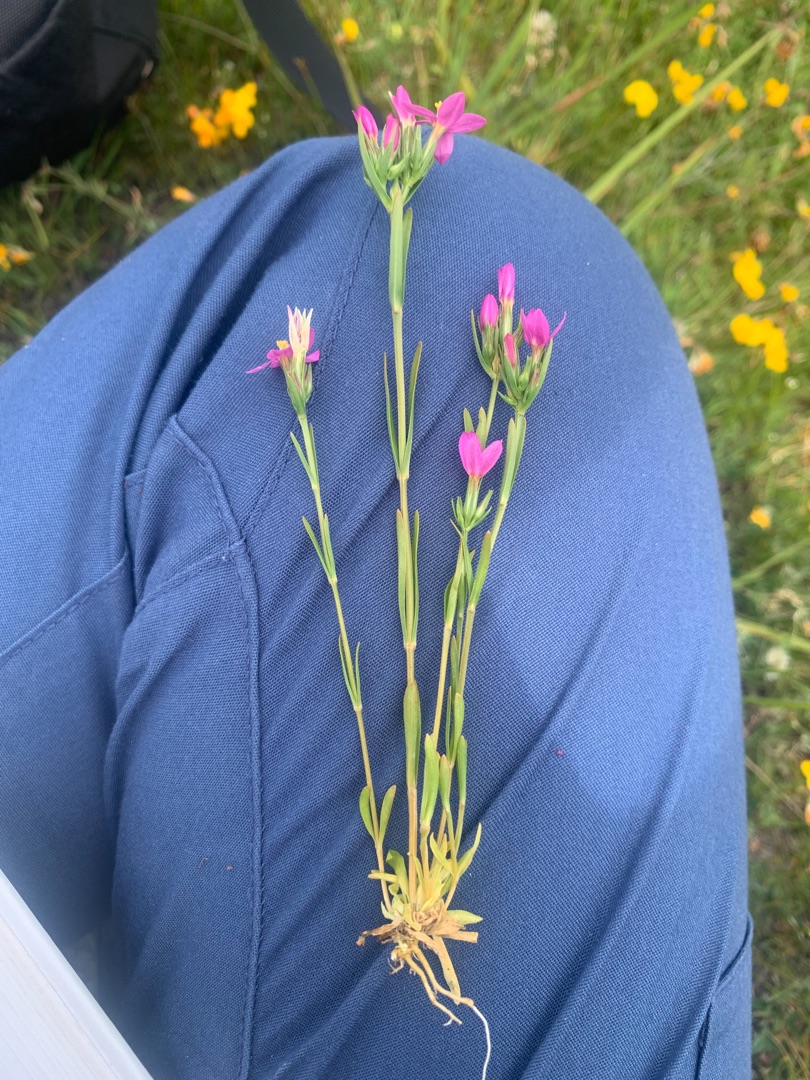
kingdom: Plantae
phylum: Tracheophyta
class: Magnoliopsida
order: Gentianales
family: Gentianaceae
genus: Centaurium
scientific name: Centaurium littorale
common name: Strand-tusindgylden
